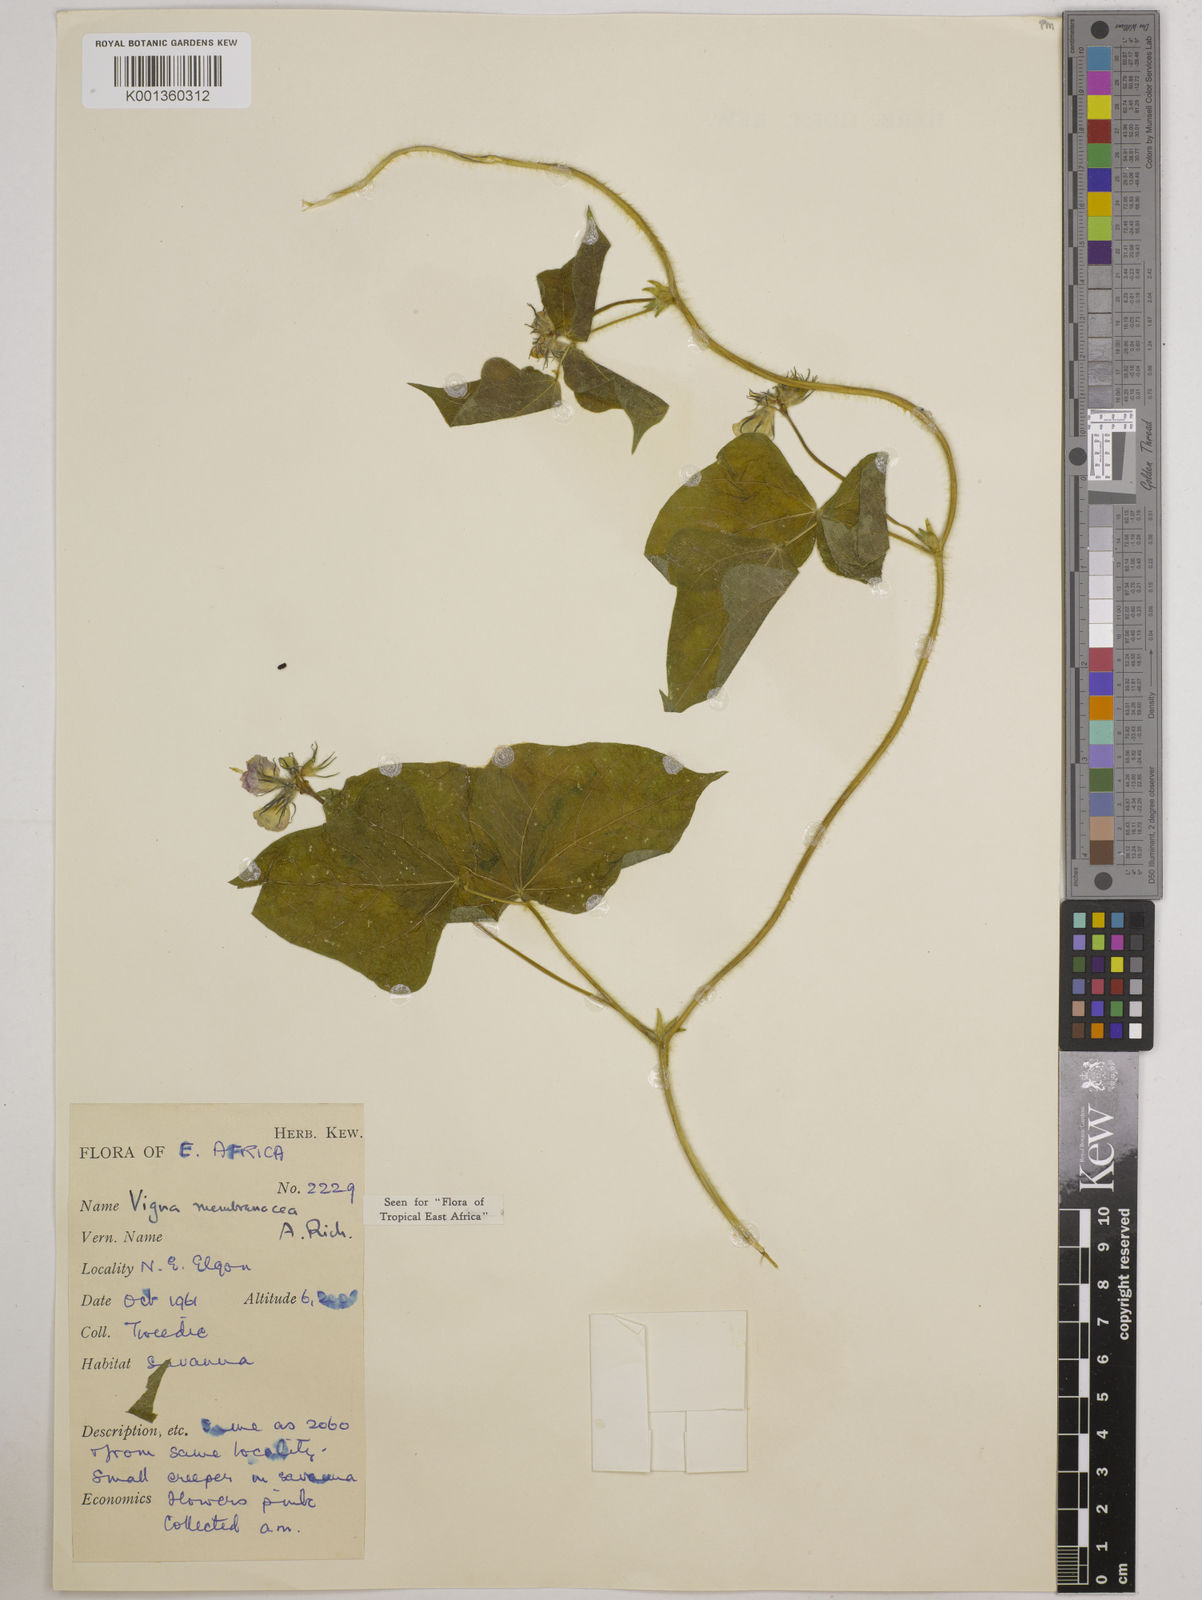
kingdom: Plantae
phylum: Tracheophyta
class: Magnoliopsida
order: Fabales
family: Fabaceae
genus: Vigna
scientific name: Vigna membranacea
